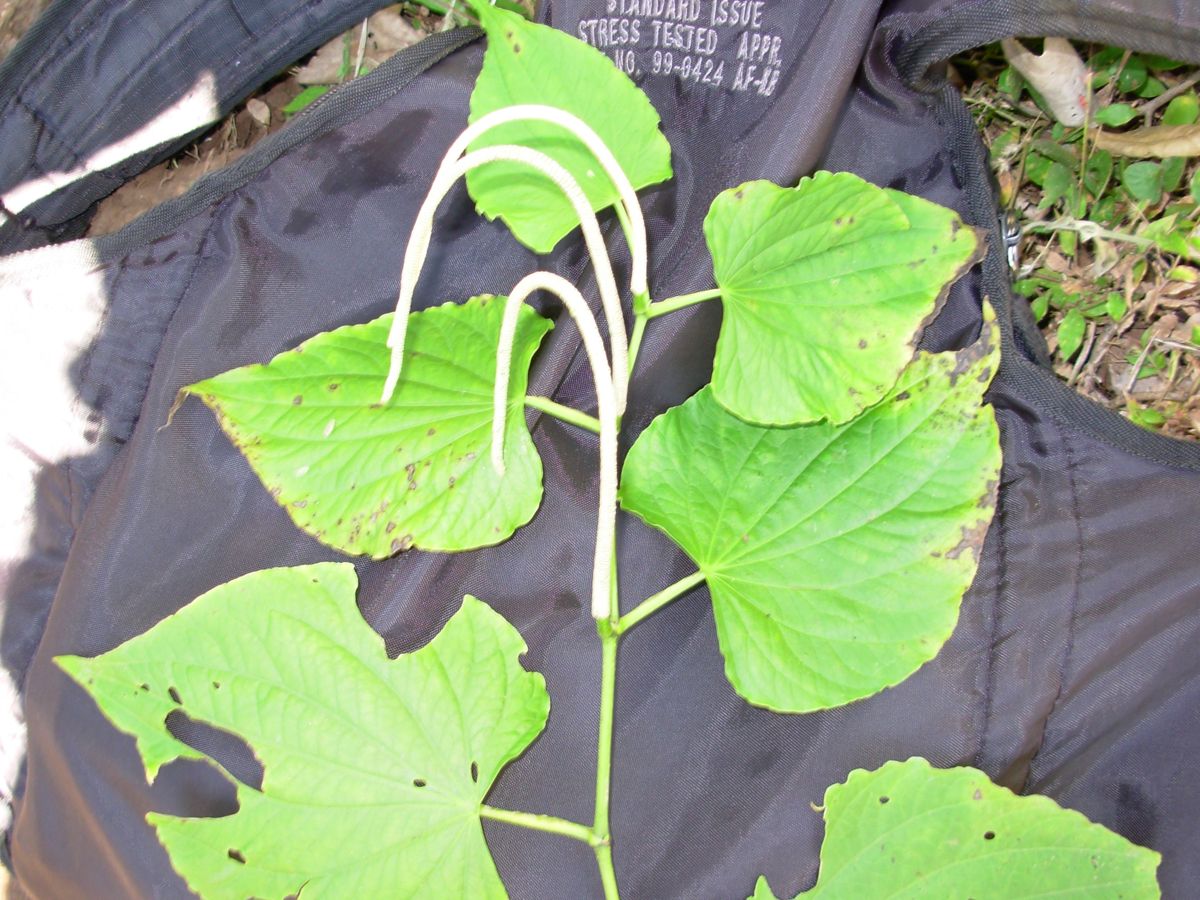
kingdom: Plantae
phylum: Tracheophyta
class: Magnoliopsida
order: Piperales
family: Piperaceae
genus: Piper
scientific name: Piper marginatum
